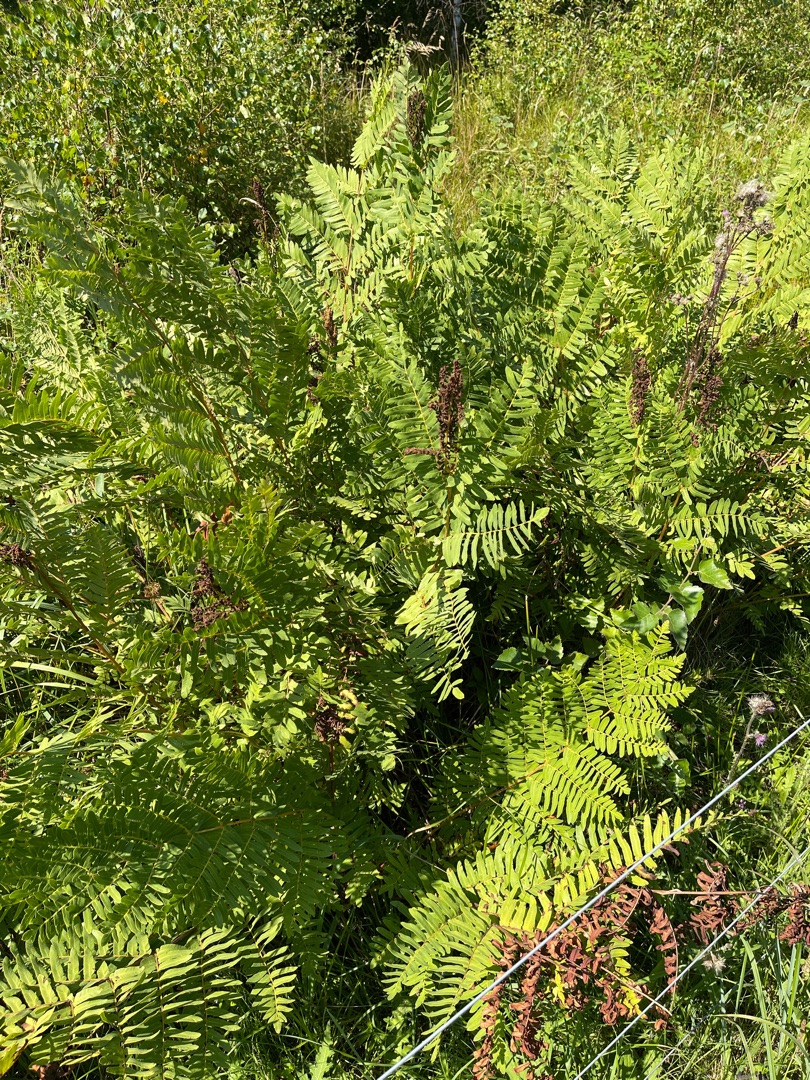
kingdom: Plantae
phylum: Tracheophyta
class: Polypodiopsida
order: Osmundales
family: Osmundaceae
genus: Osmunda
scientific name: Osmunda regalis
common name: Kongebregne
